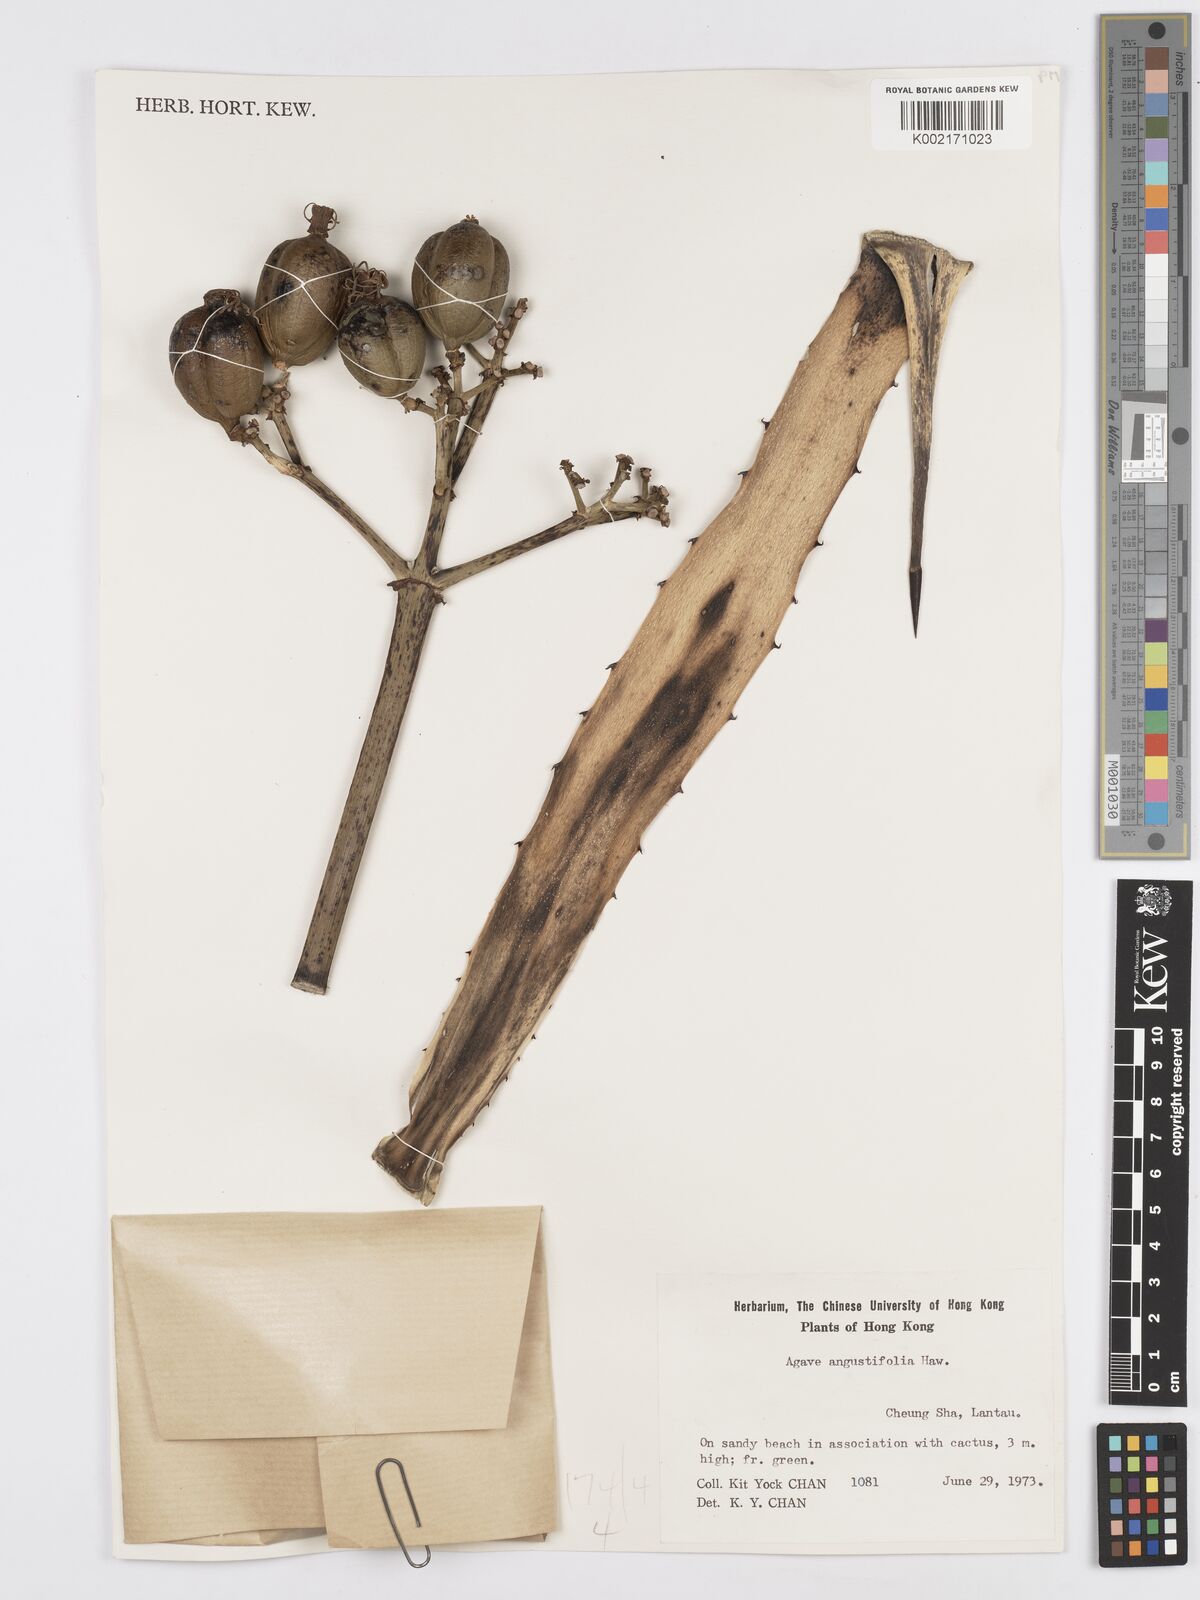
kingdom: Plantae
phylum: Tracheophyta
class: Liliopsida
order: Asparagales
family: Asparagaceae
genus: Agave
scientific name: Agave angustifolia
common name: Mescal agave
